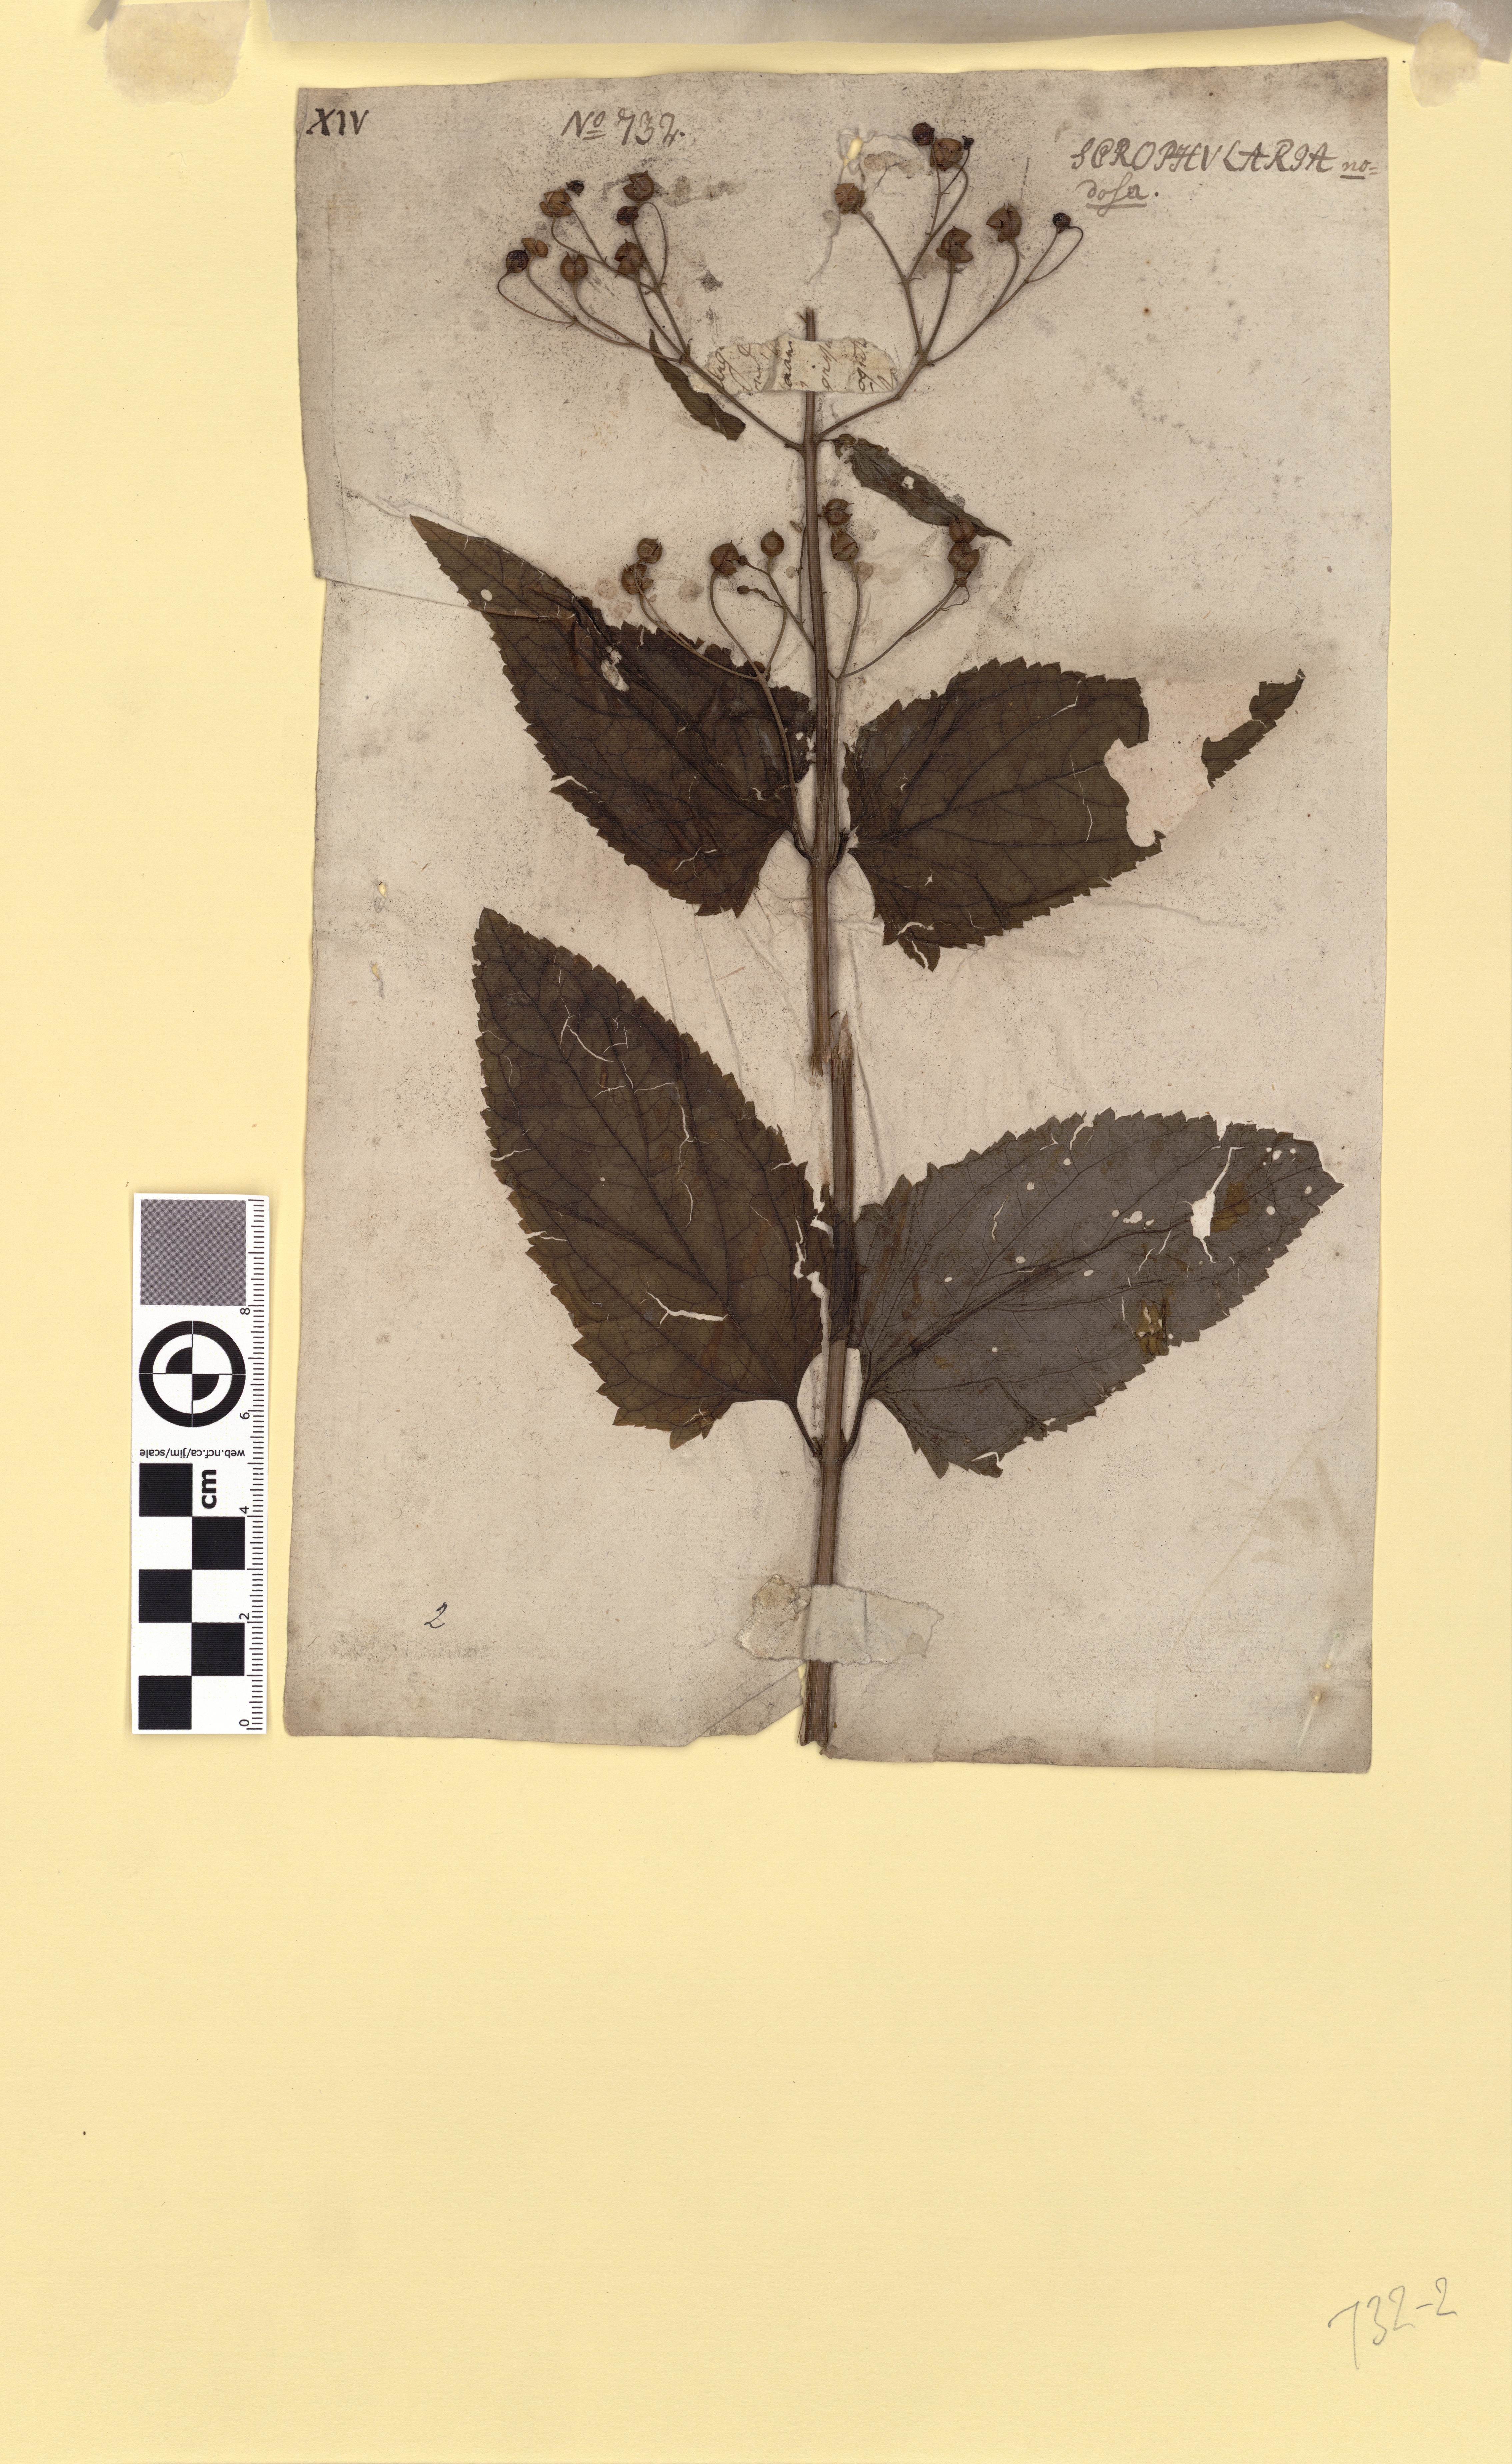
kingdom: Plantae
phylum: Tracheophyta
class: Magnoliopsida
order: Lamiales
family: Scrophulariaceae
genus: Scrophularia
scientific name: Scrophularia nodosa
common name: Common figwort
